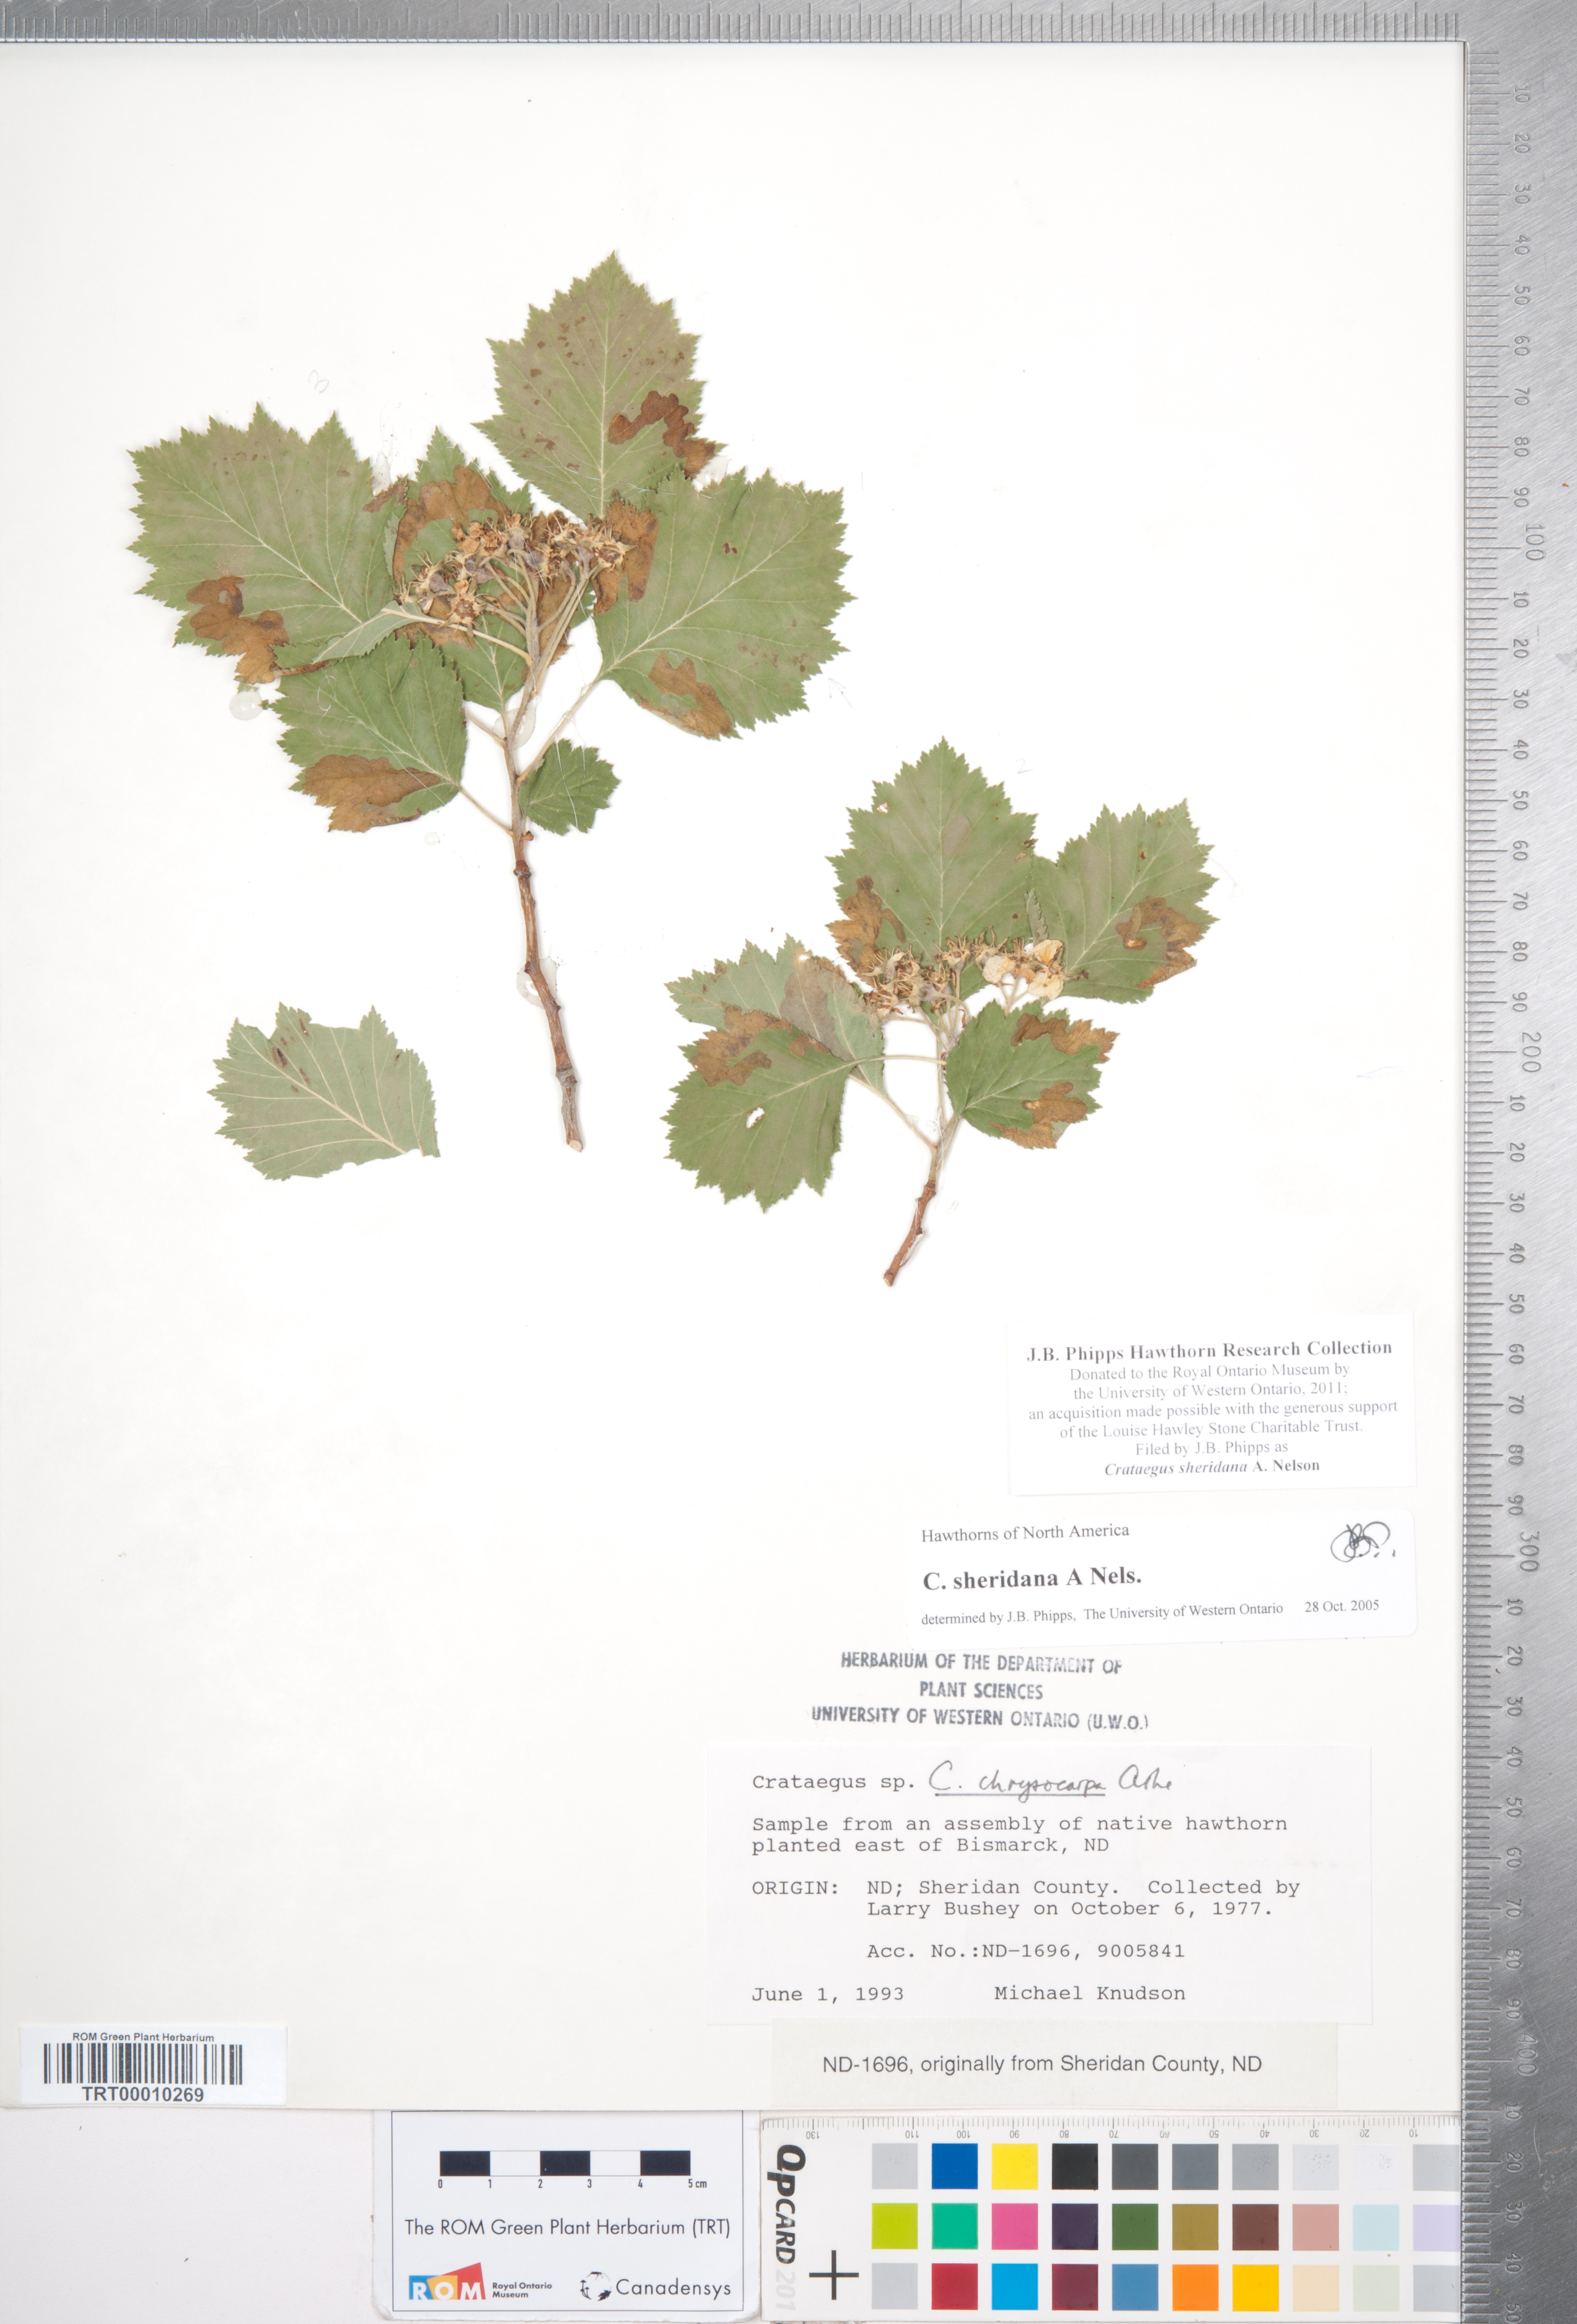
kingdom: Plantae
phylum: Tracheophyta
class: Magnoliopsida
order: Rosales
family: Rosaceae
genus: Crataegus
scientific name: Crataegus chrysocarpa
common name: Fire-berry hawthorn
